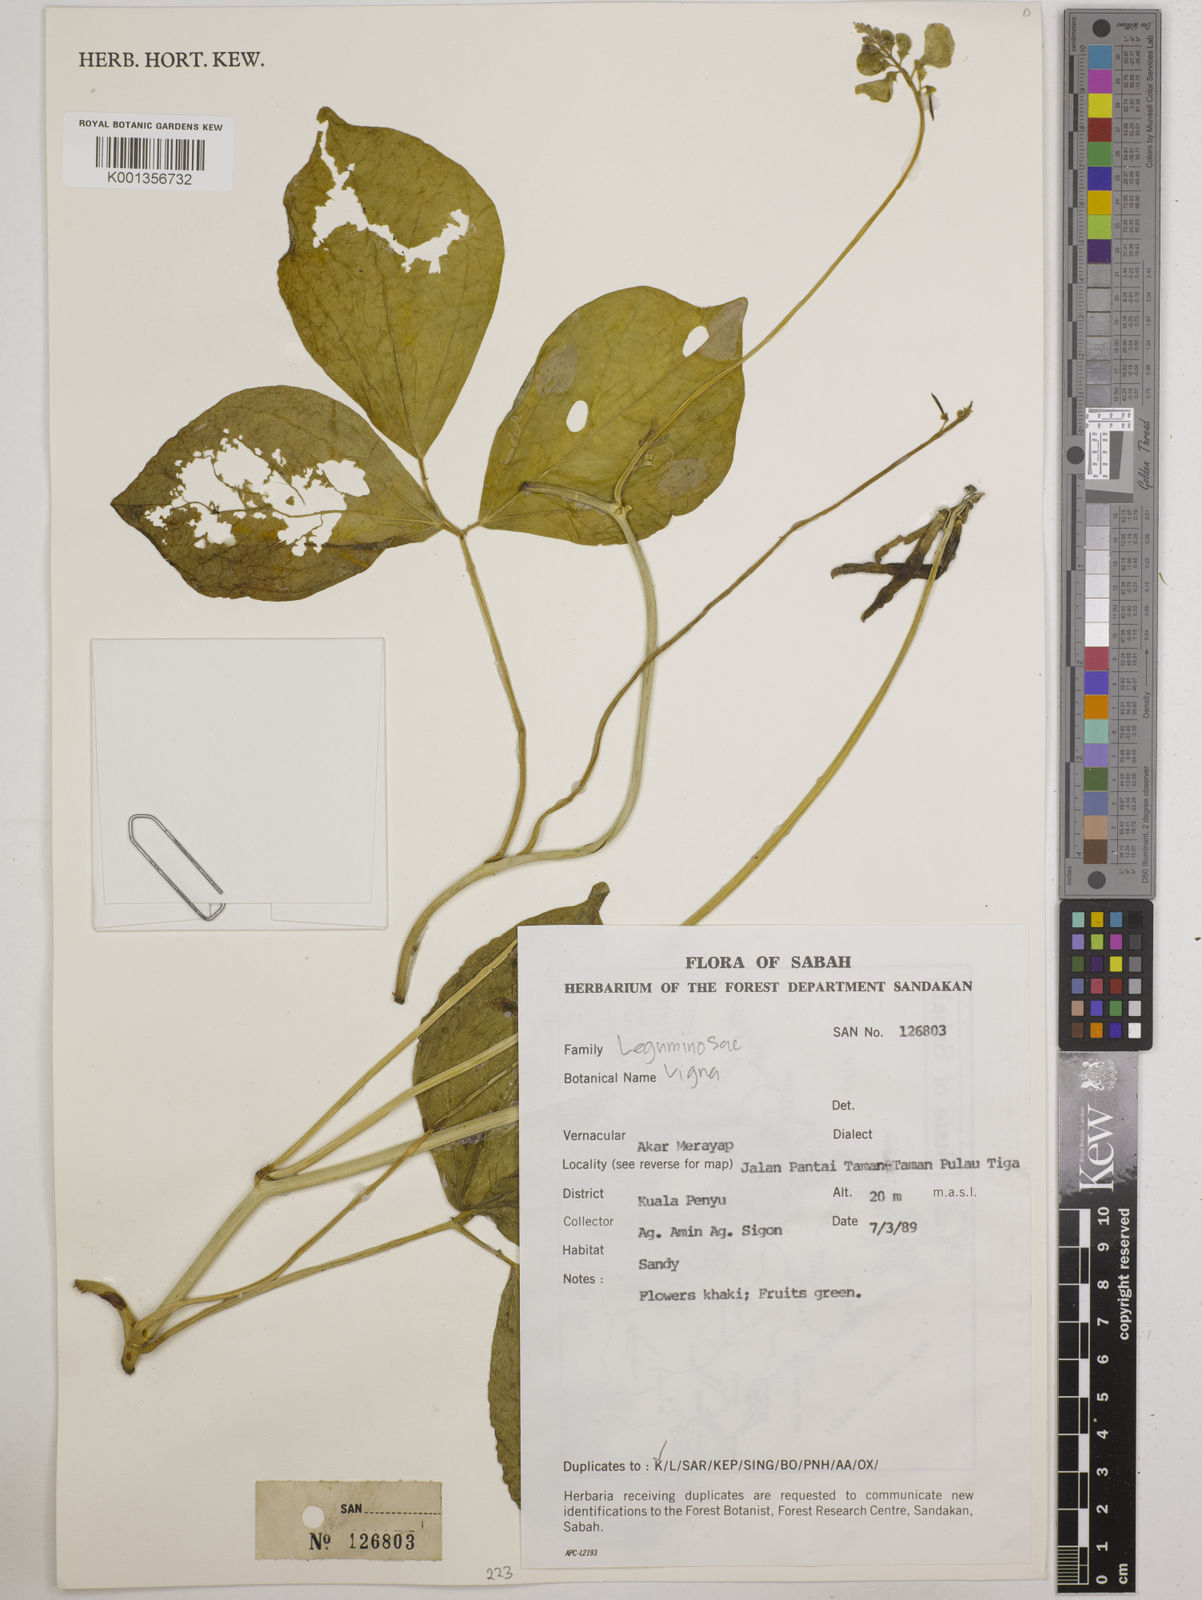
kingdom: Plantae
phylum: Tracheophyta
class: Magnoliopsida
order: Fabales
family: Fabaceae
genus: Vigna
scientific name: Vigna
